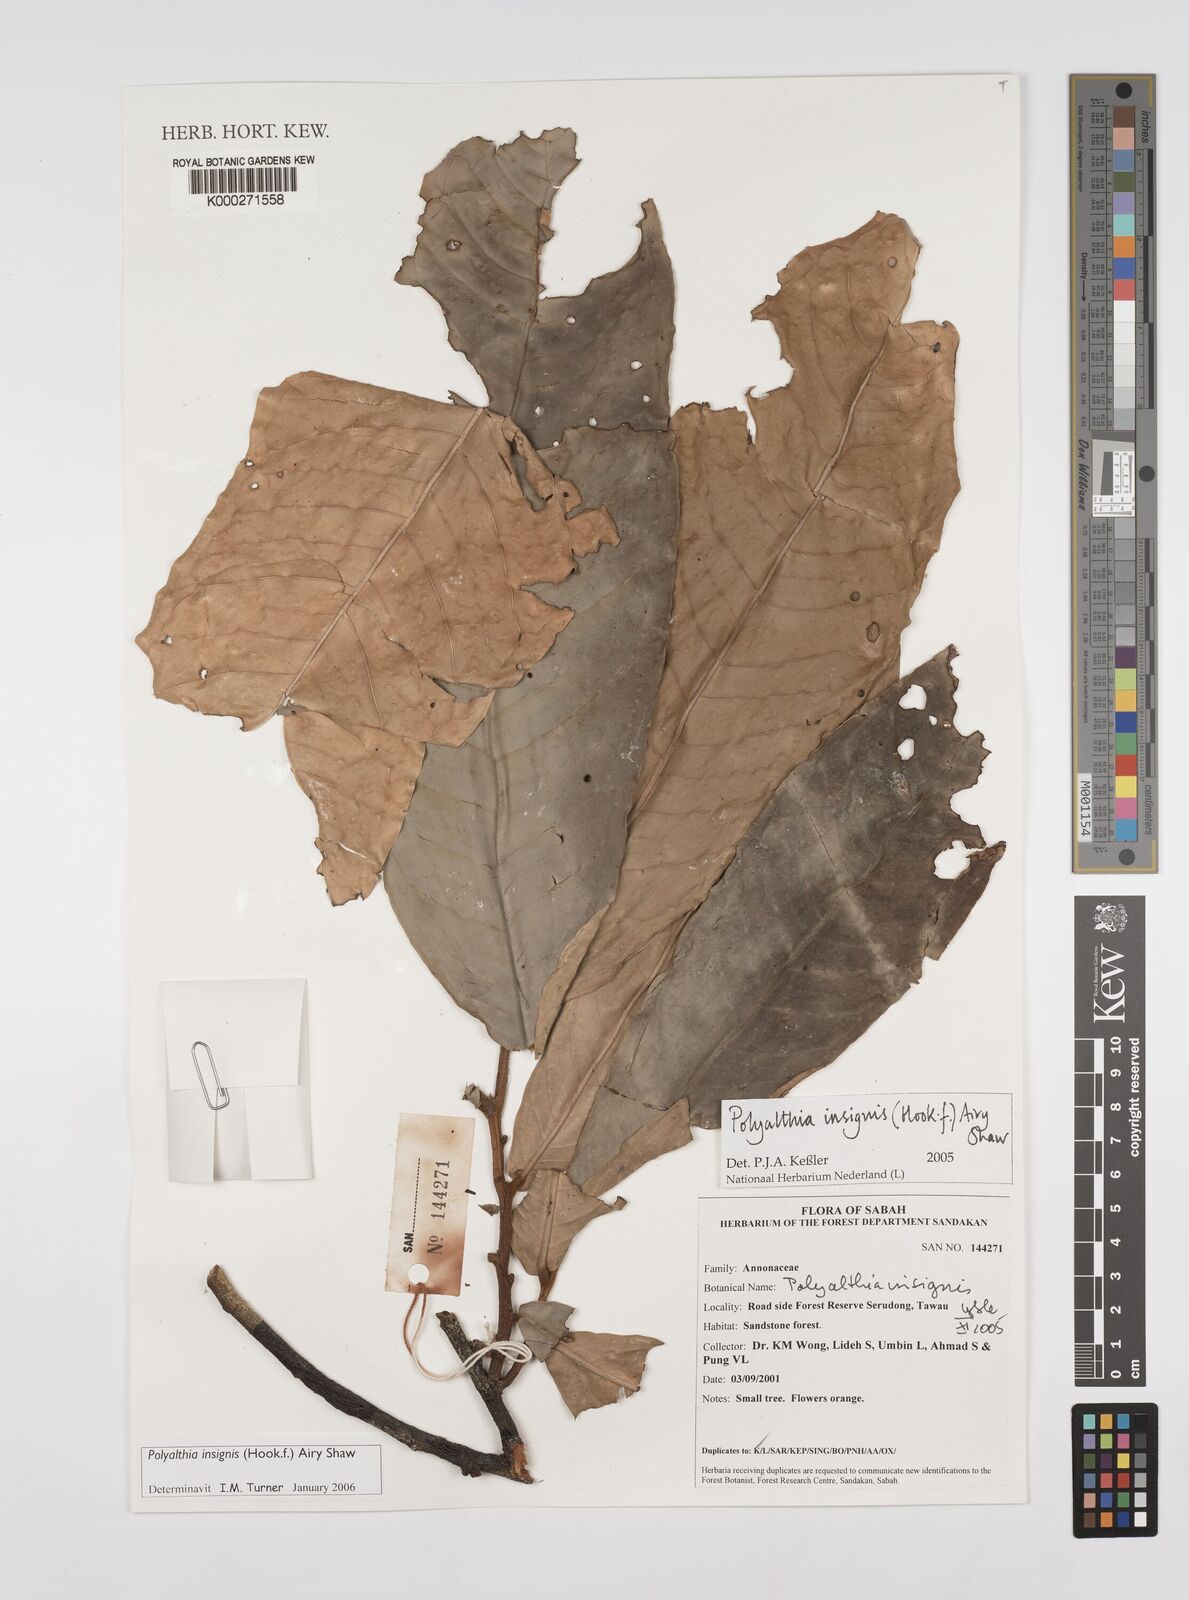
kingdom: Plantae
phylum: Tracheophyta
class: Magnoliopsida
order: Magnoliales
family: Annonaceae
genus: Polyalthia
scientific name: Polyalthia insignis
